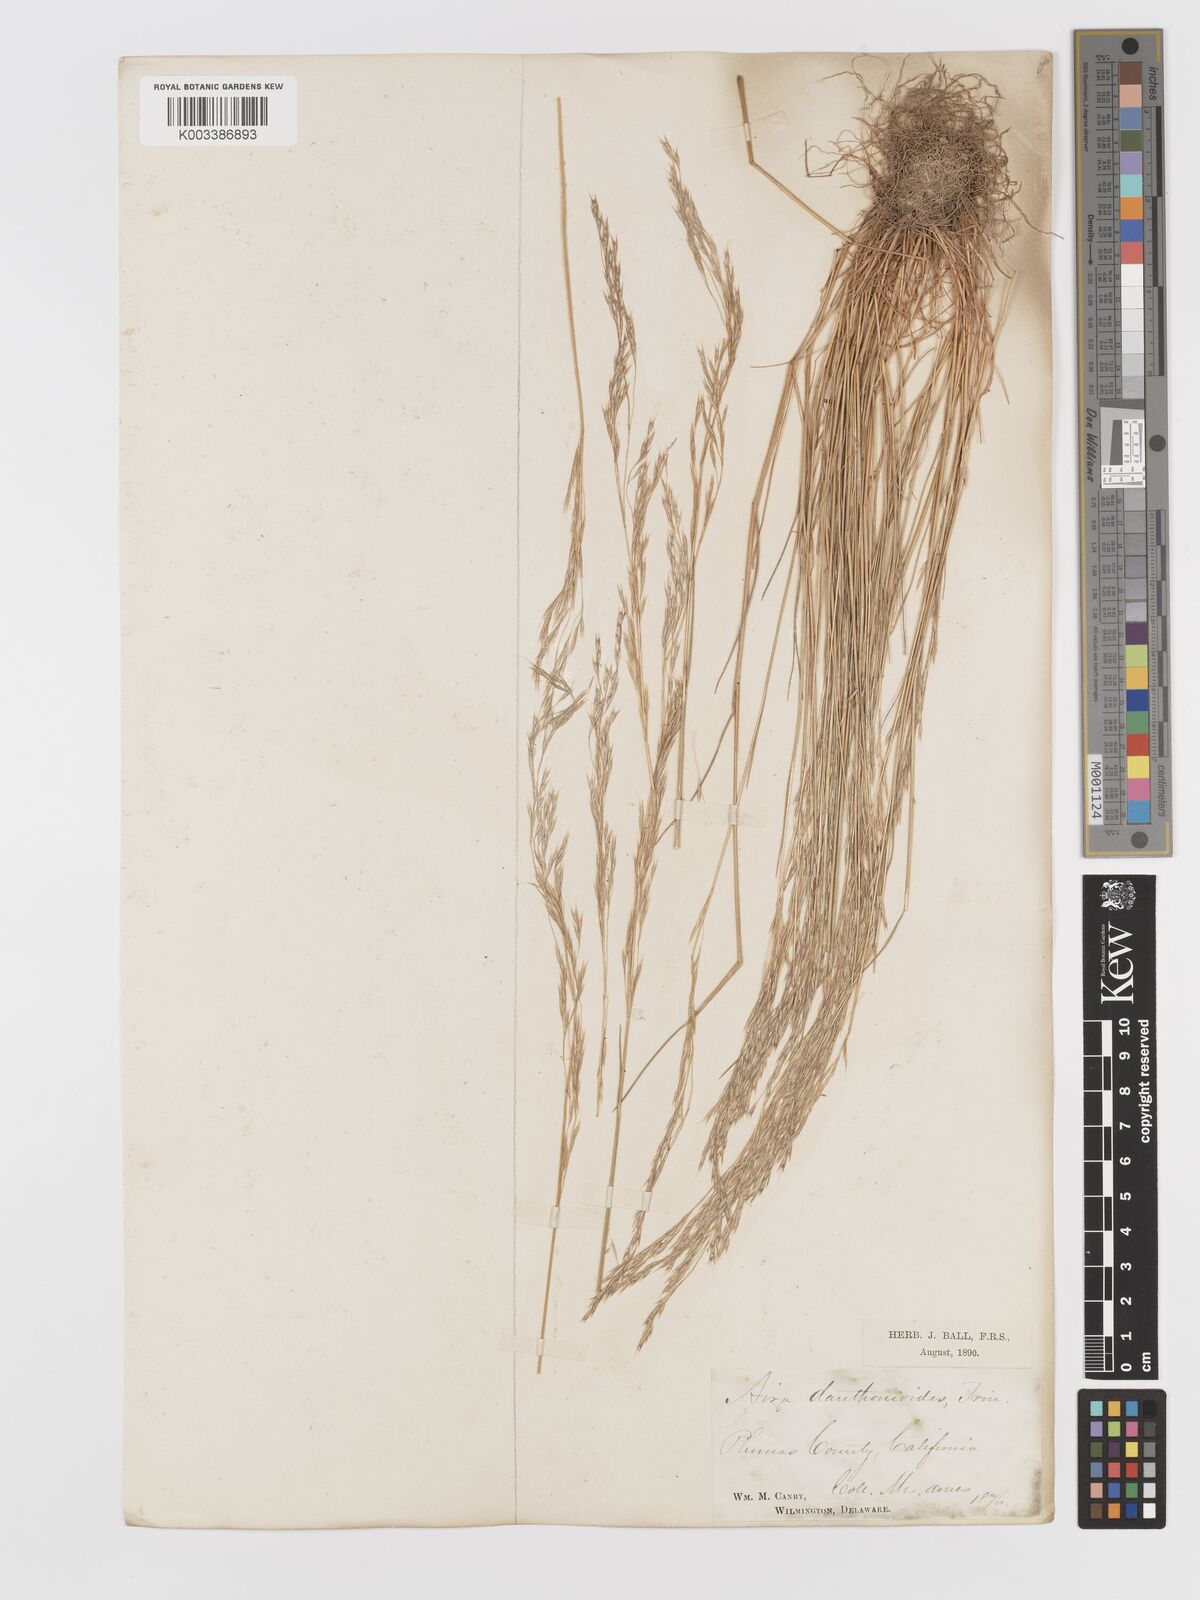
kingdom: Plantae
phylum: Tracheophyta
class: Liliopsida
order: Poales
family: Poaceae
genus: Deschampsia
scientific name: Deschampsia danthonioides
